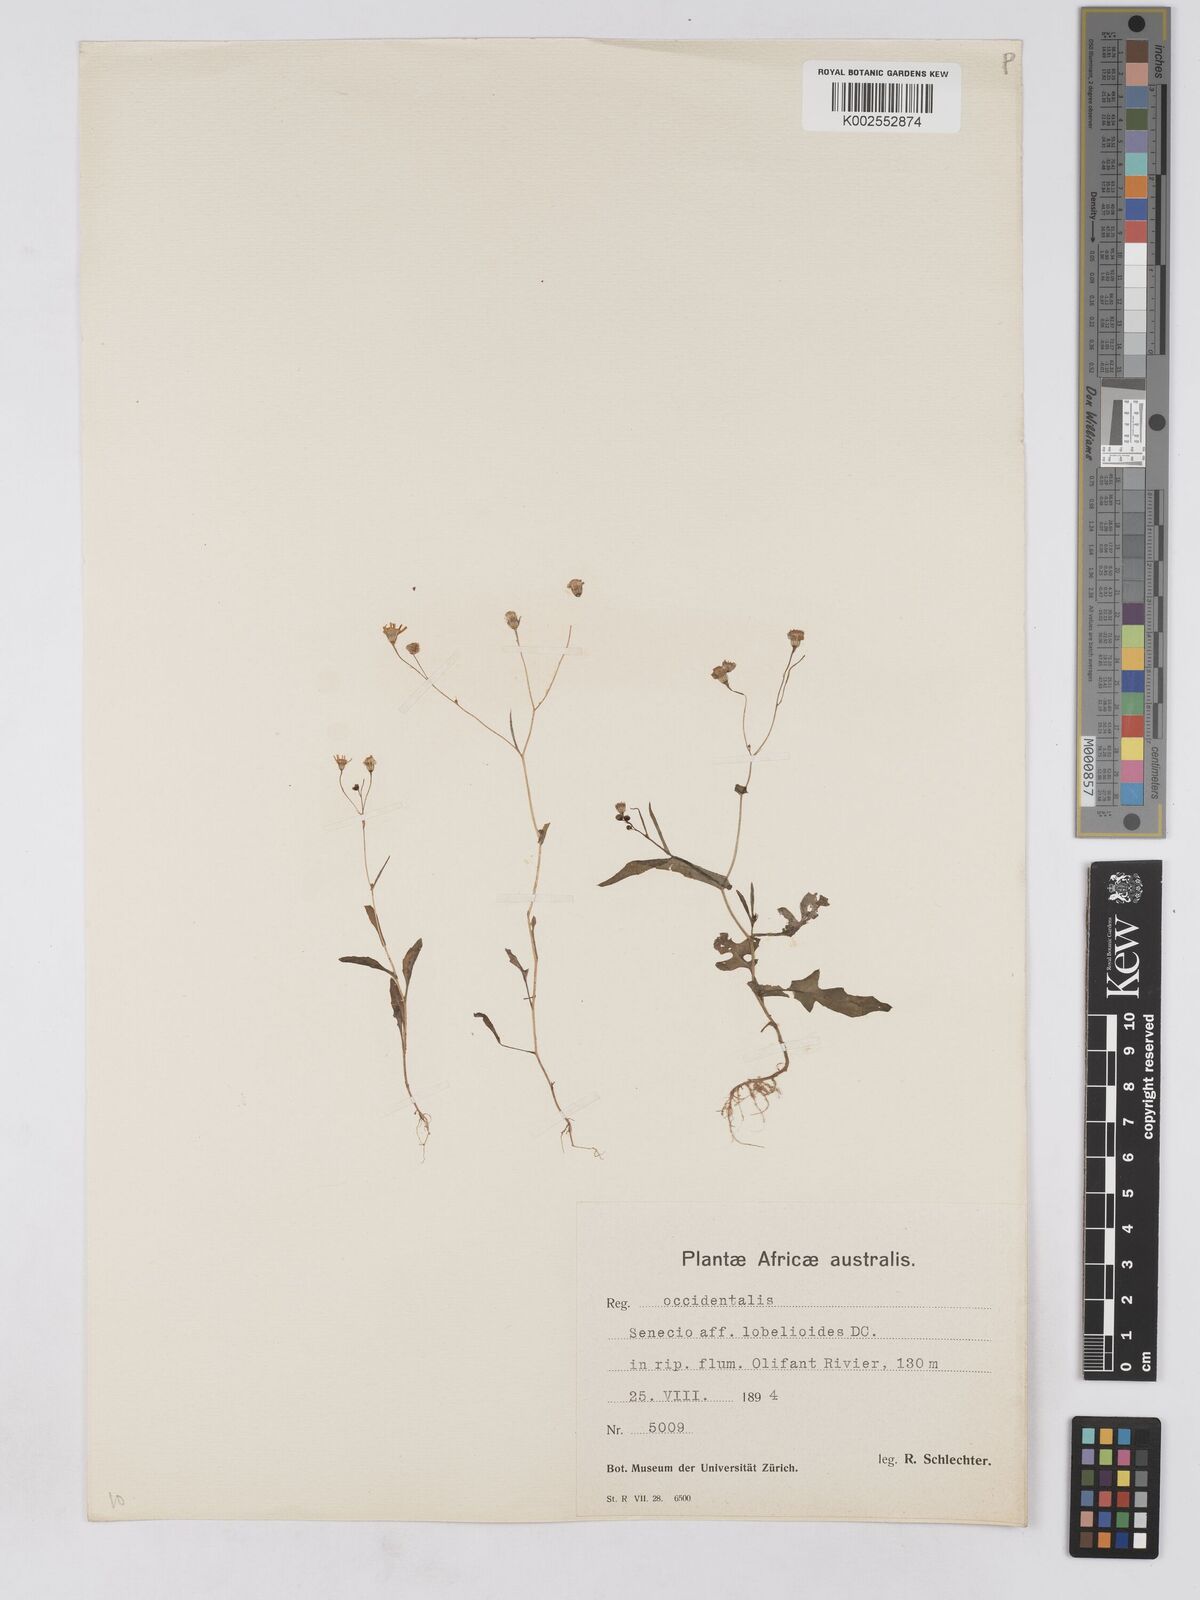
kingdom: Plantae
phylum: Tracheophyta
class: Magnoliopsida
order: Asterales
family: Asteraceae
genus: Senecio
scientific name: Senecio lobelioides
